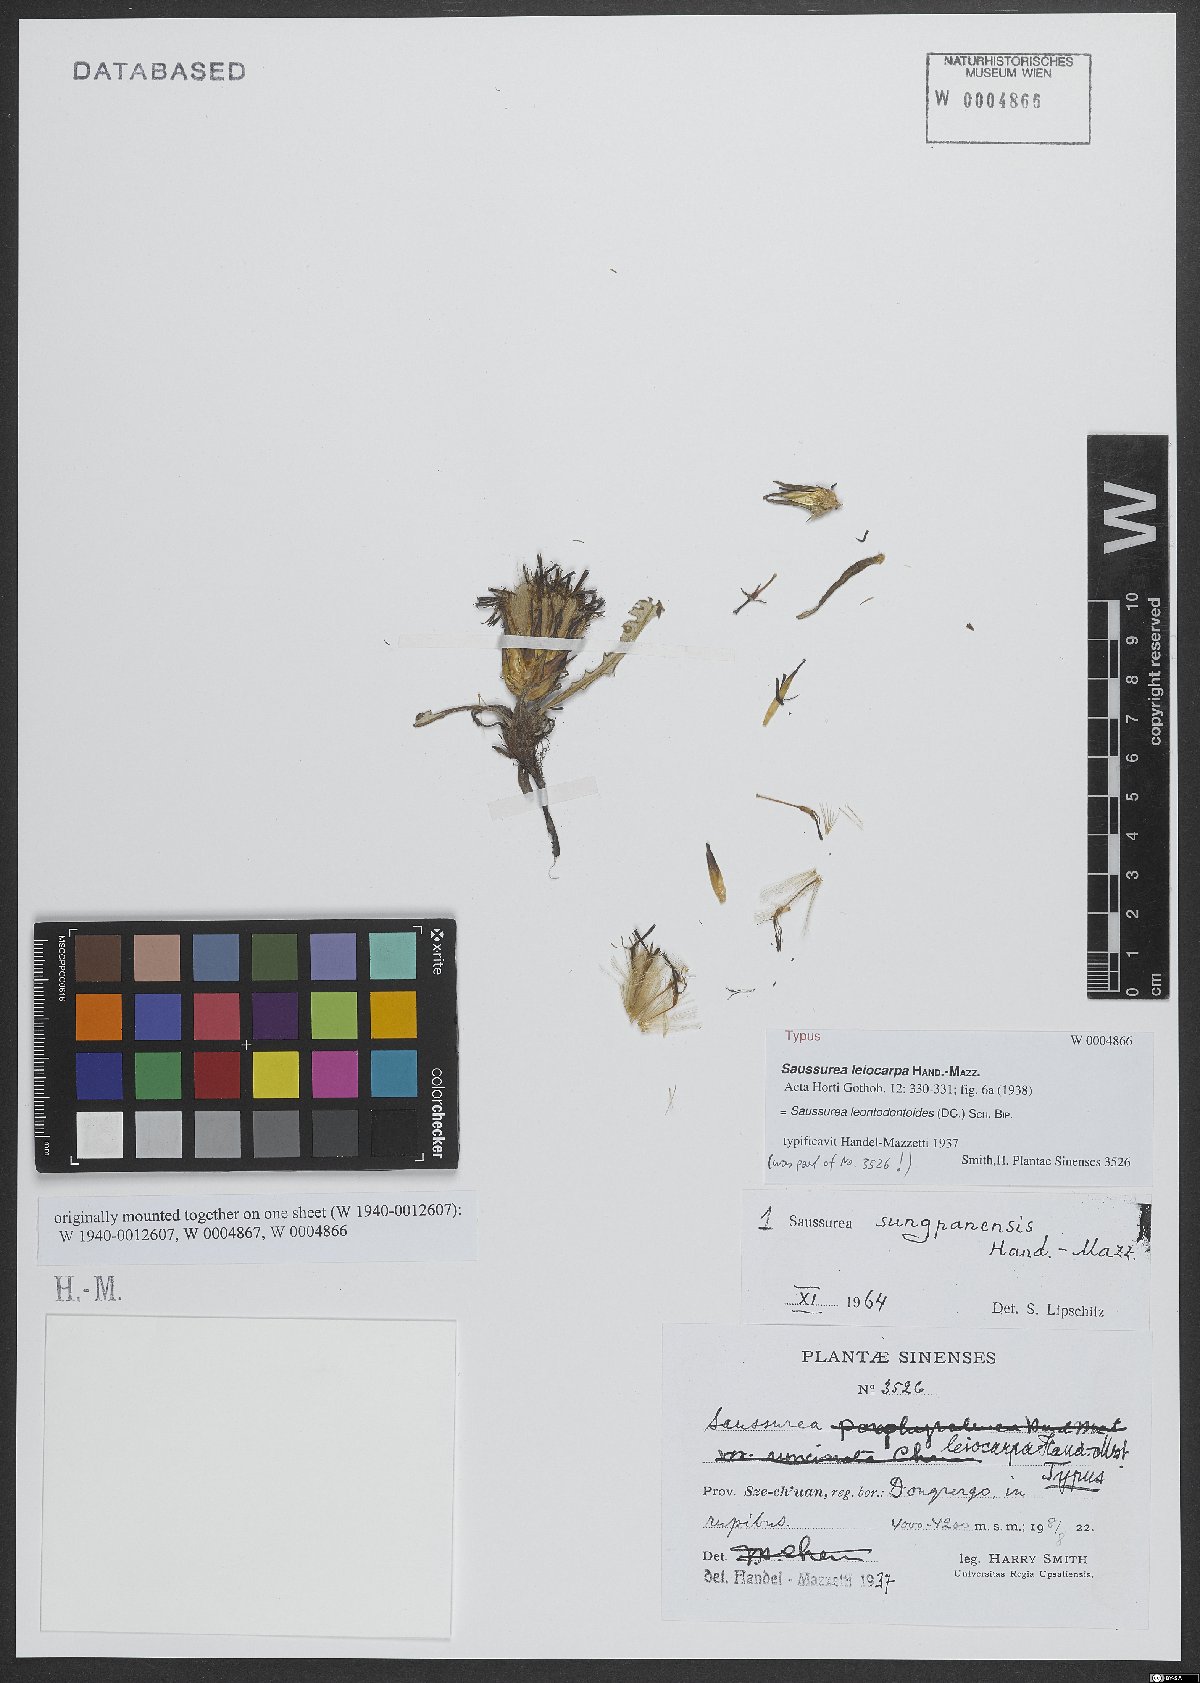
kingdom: Plantae
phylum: Tracheophyta
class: Magnoliopsida
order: Asterales
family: Asteraceae
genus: Saussurea
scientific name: Saussurea leontodontoides
